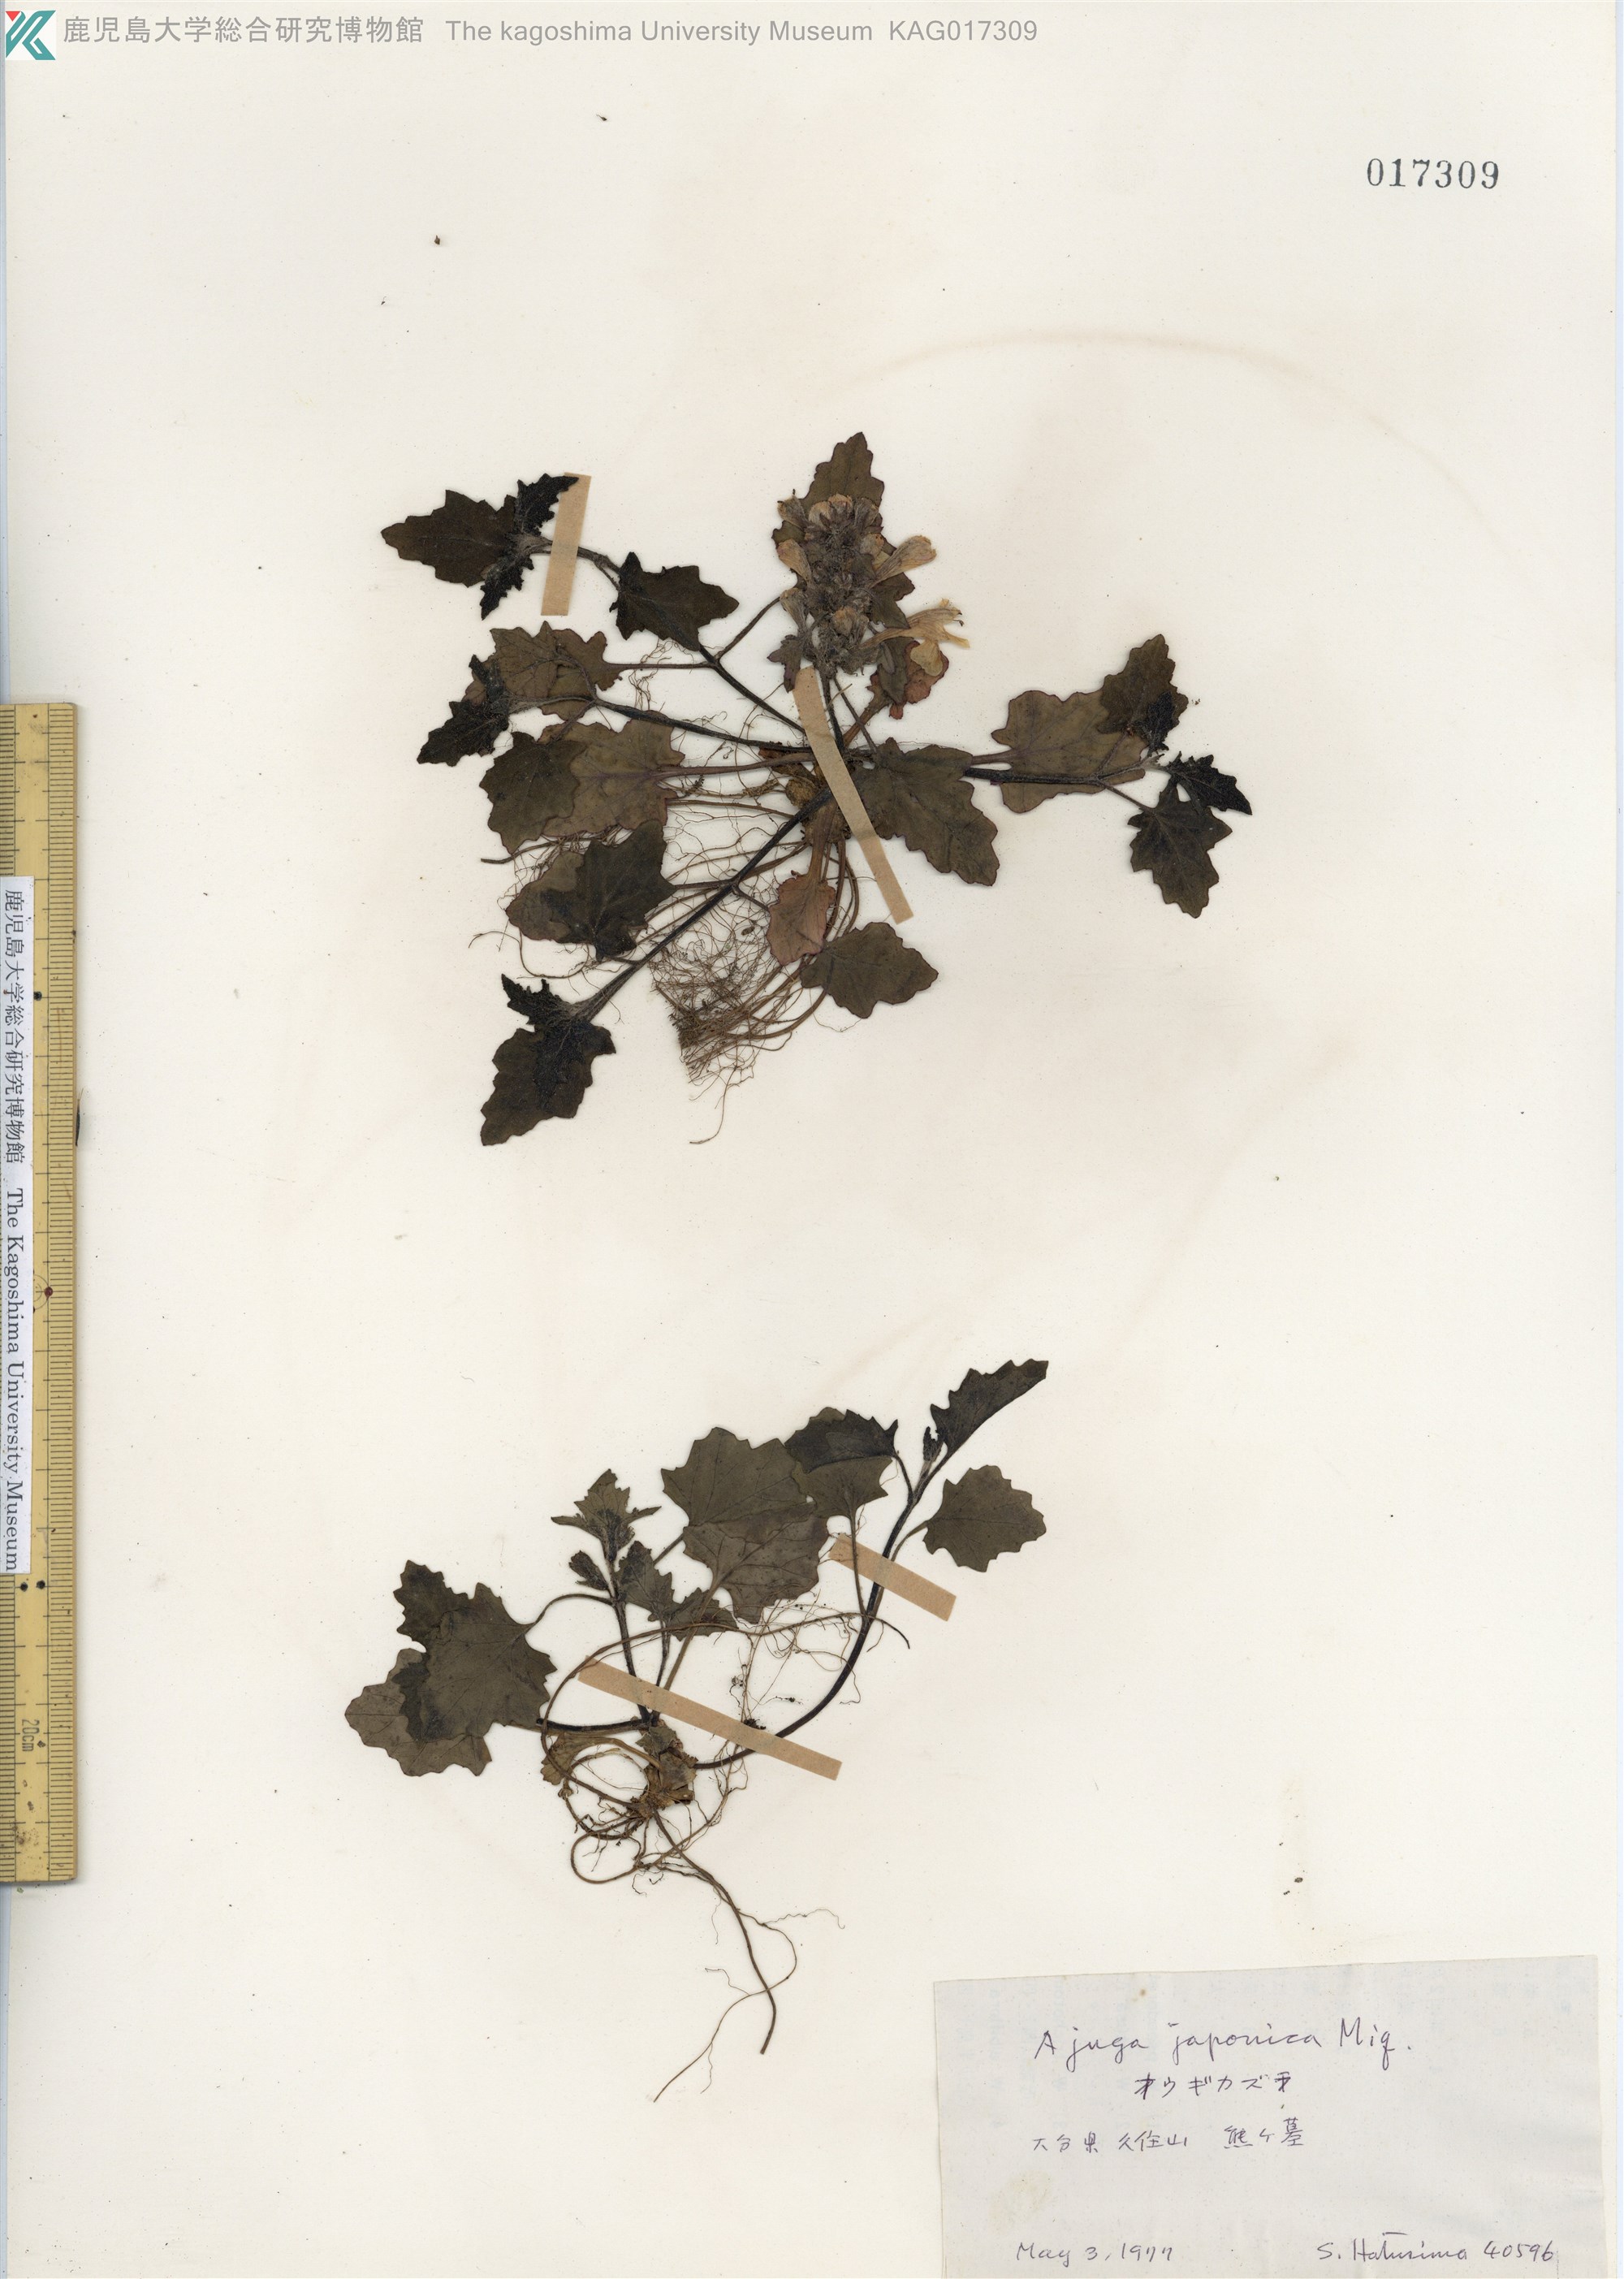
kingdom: Plantae
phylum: Tracheophyta
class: Magnoliopsida
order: Lamiales
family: Lamiaceae
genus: Ajuga
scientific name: Ajuga japonica
